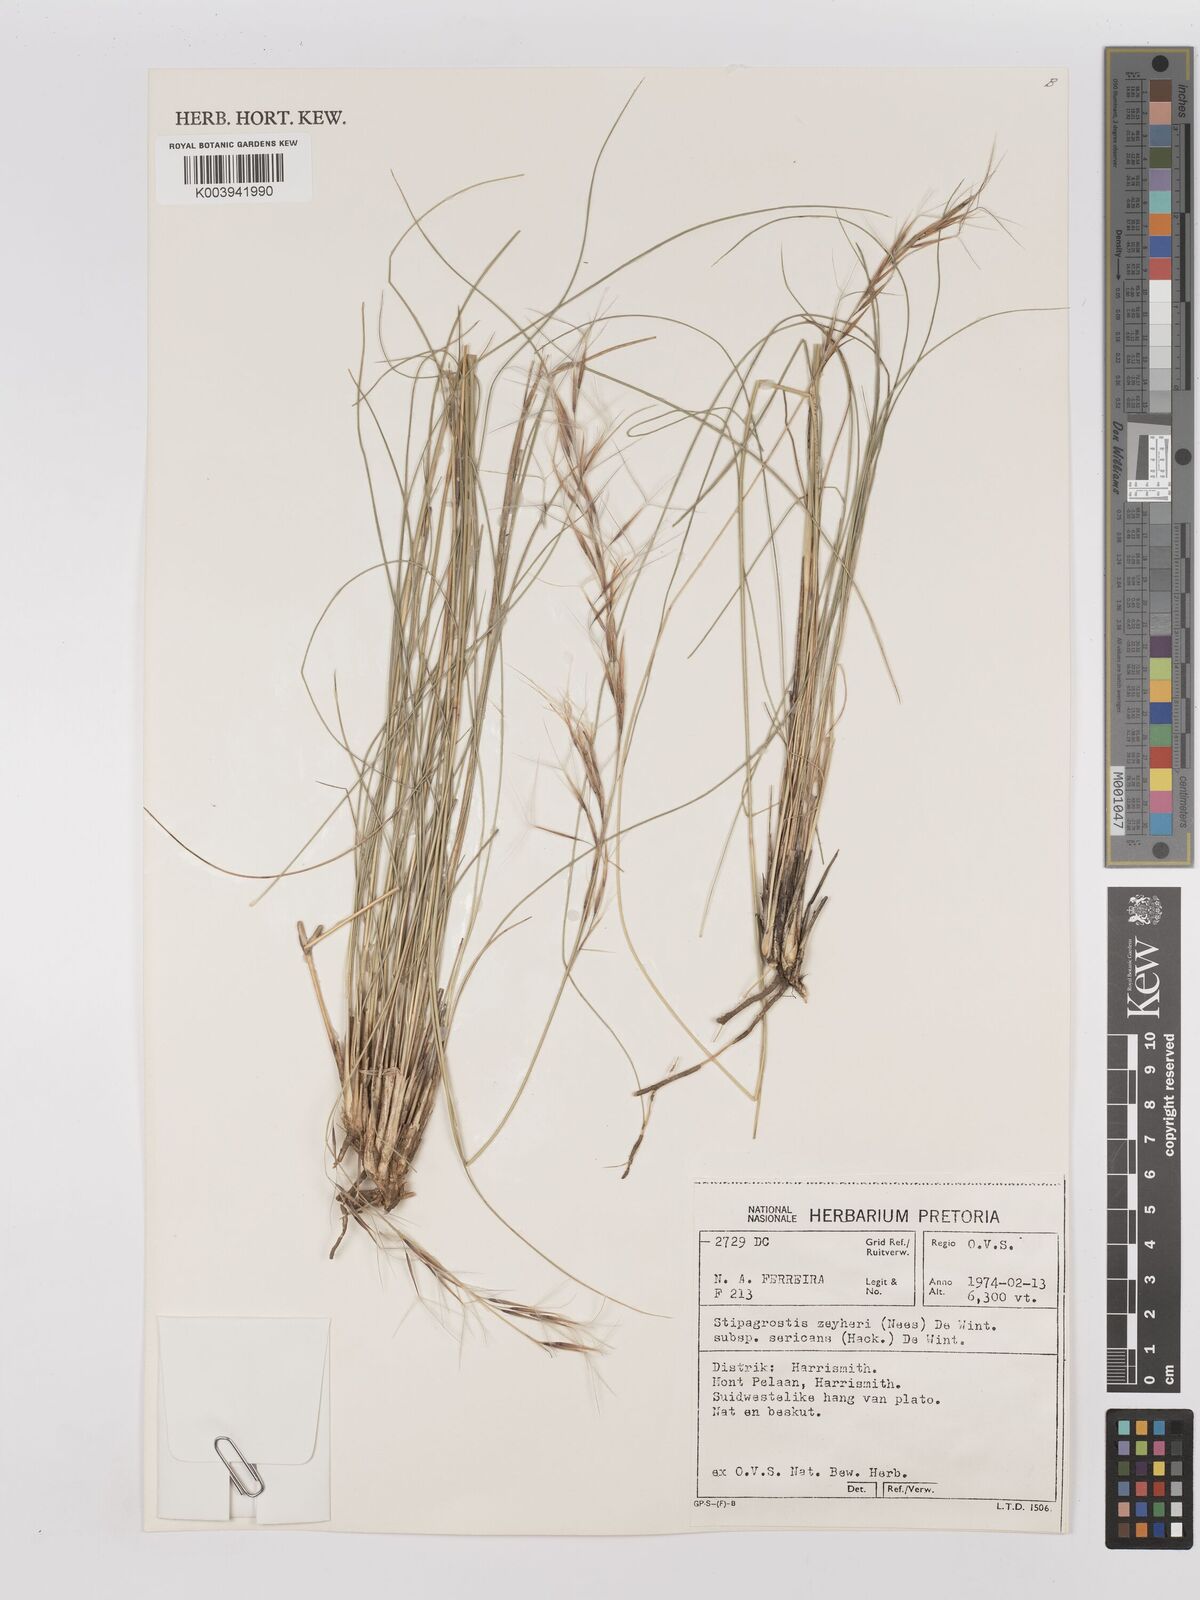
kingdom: Plantae
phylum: Tracheophyta
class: Liliopsida
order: Poales
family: Poaceae
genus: Stipagrostis
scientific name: Stipagrostis zeyheri
